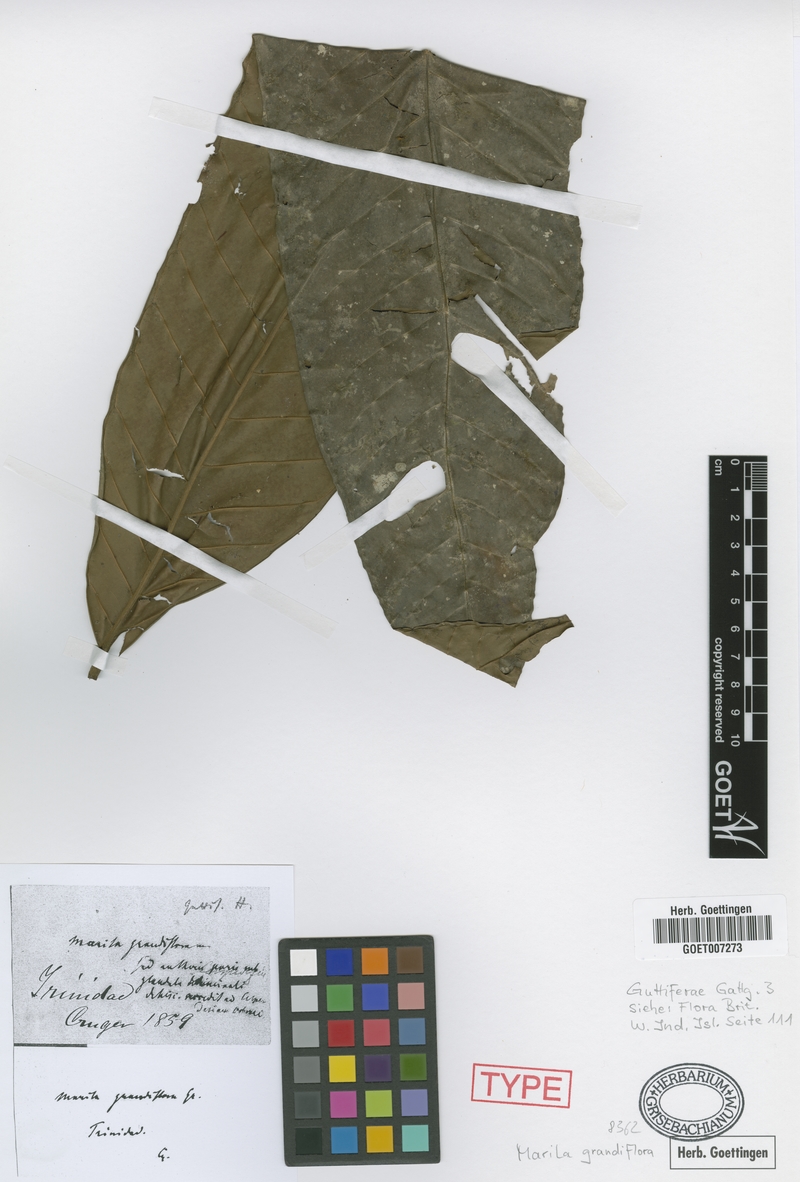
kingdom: Plantae
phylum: Tracheophyta
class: Magnoliopsida
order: Malpighiales
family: Calophyllaceae
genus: Marila
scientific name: Marila grandiflora
